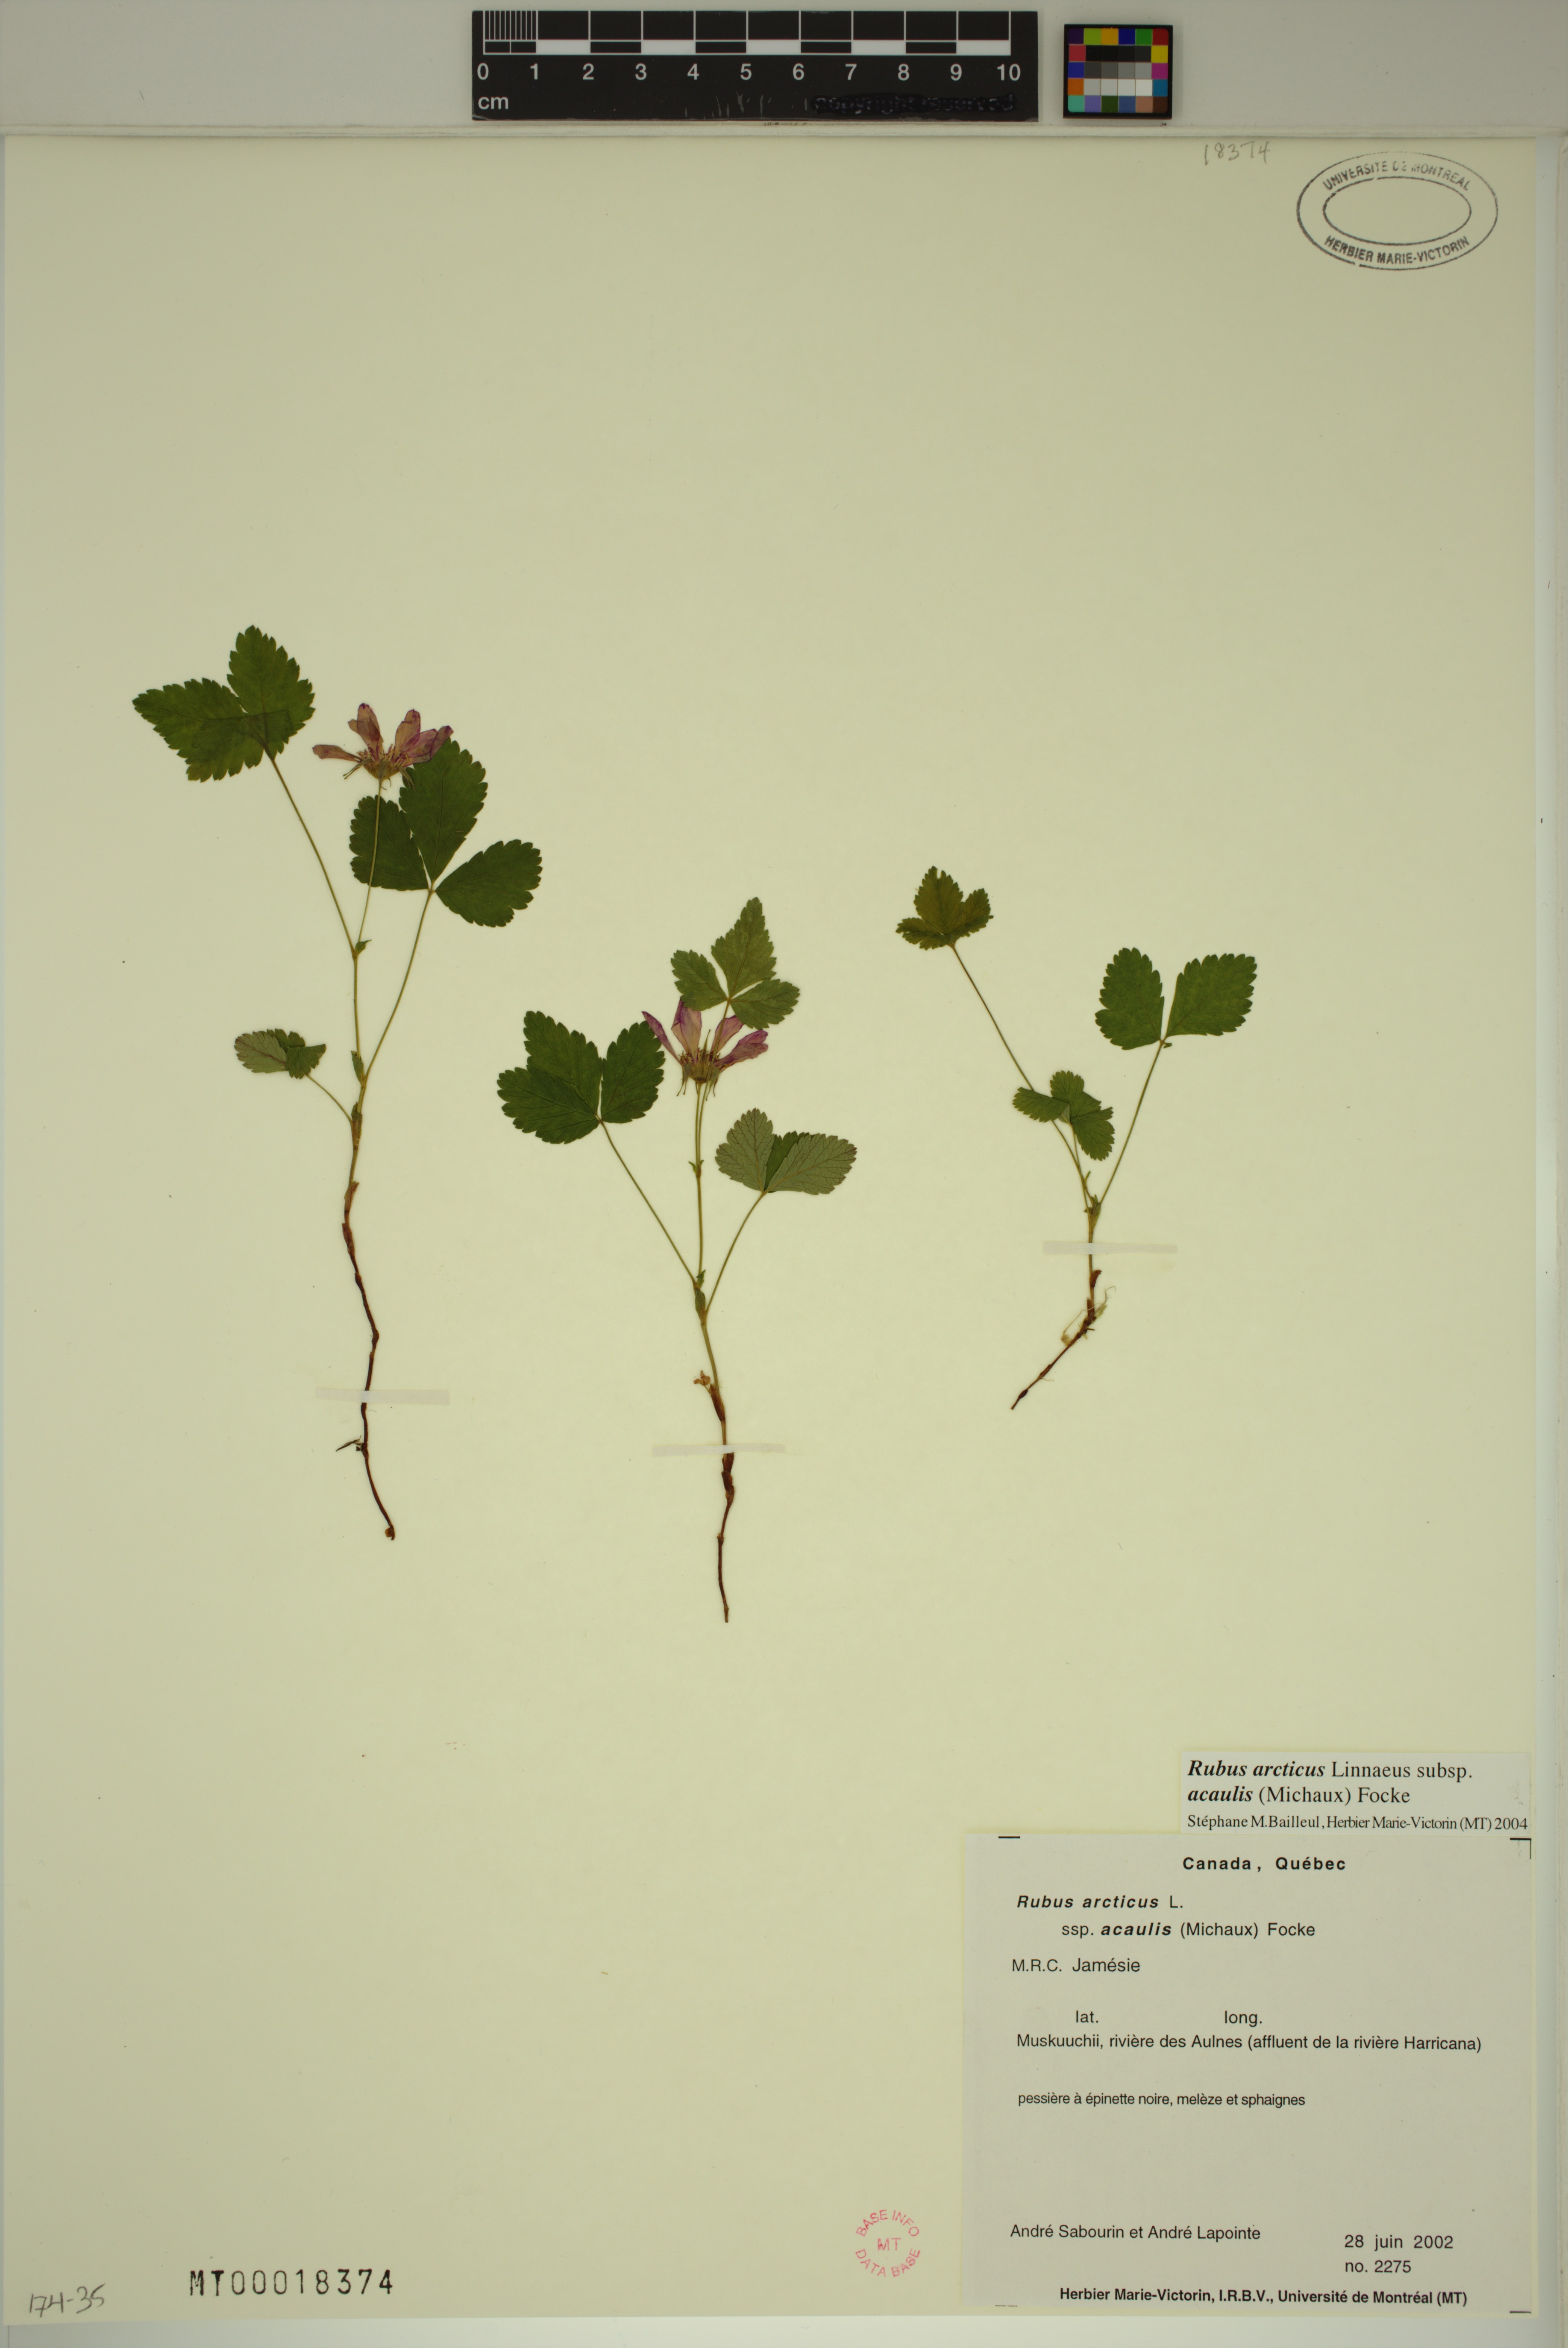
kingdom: Plantae
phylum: Tracheophyta
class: Magnoliopsida
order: Rosales
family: Rosaceae
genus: Rubus
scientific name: Rubus arcticus
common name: Arctic bramble
